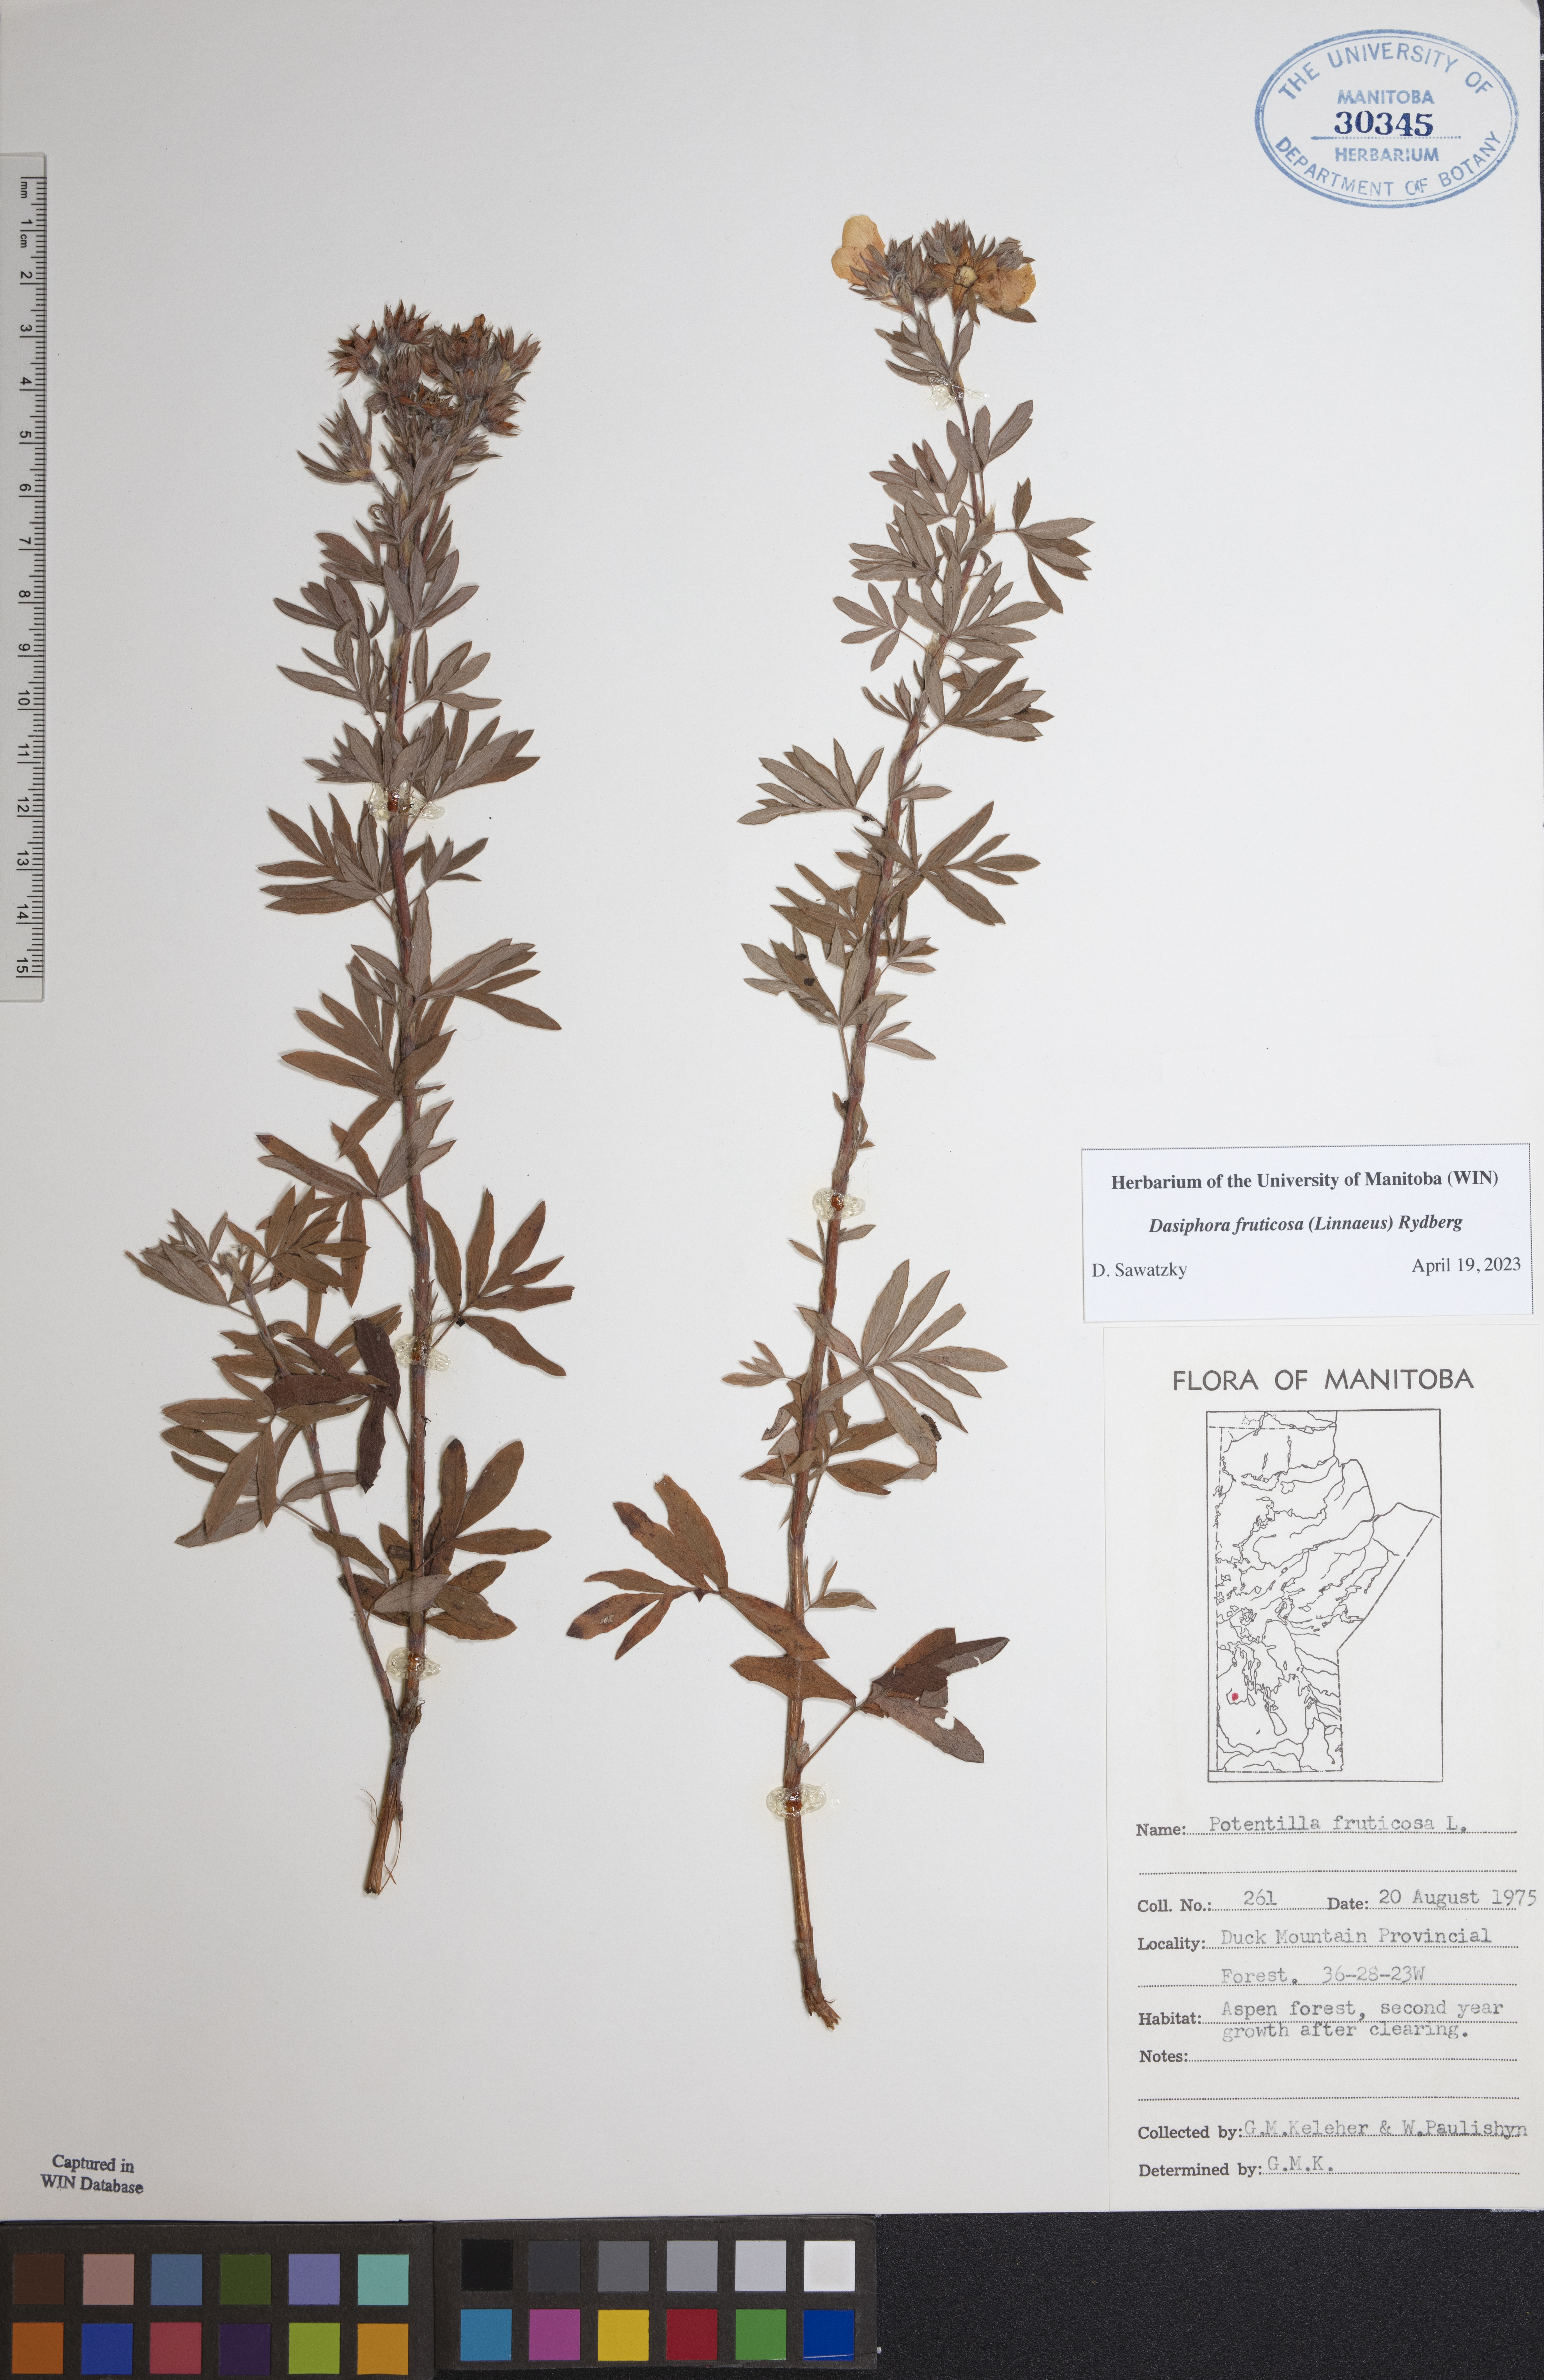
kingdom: Plantae
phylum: Tracheophyta
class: Magnoliopsida
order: Rosales
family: Rosaceae
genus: Dasiphora
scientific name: Dasiphora fruticosa
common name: Shrubby cinquefoil
